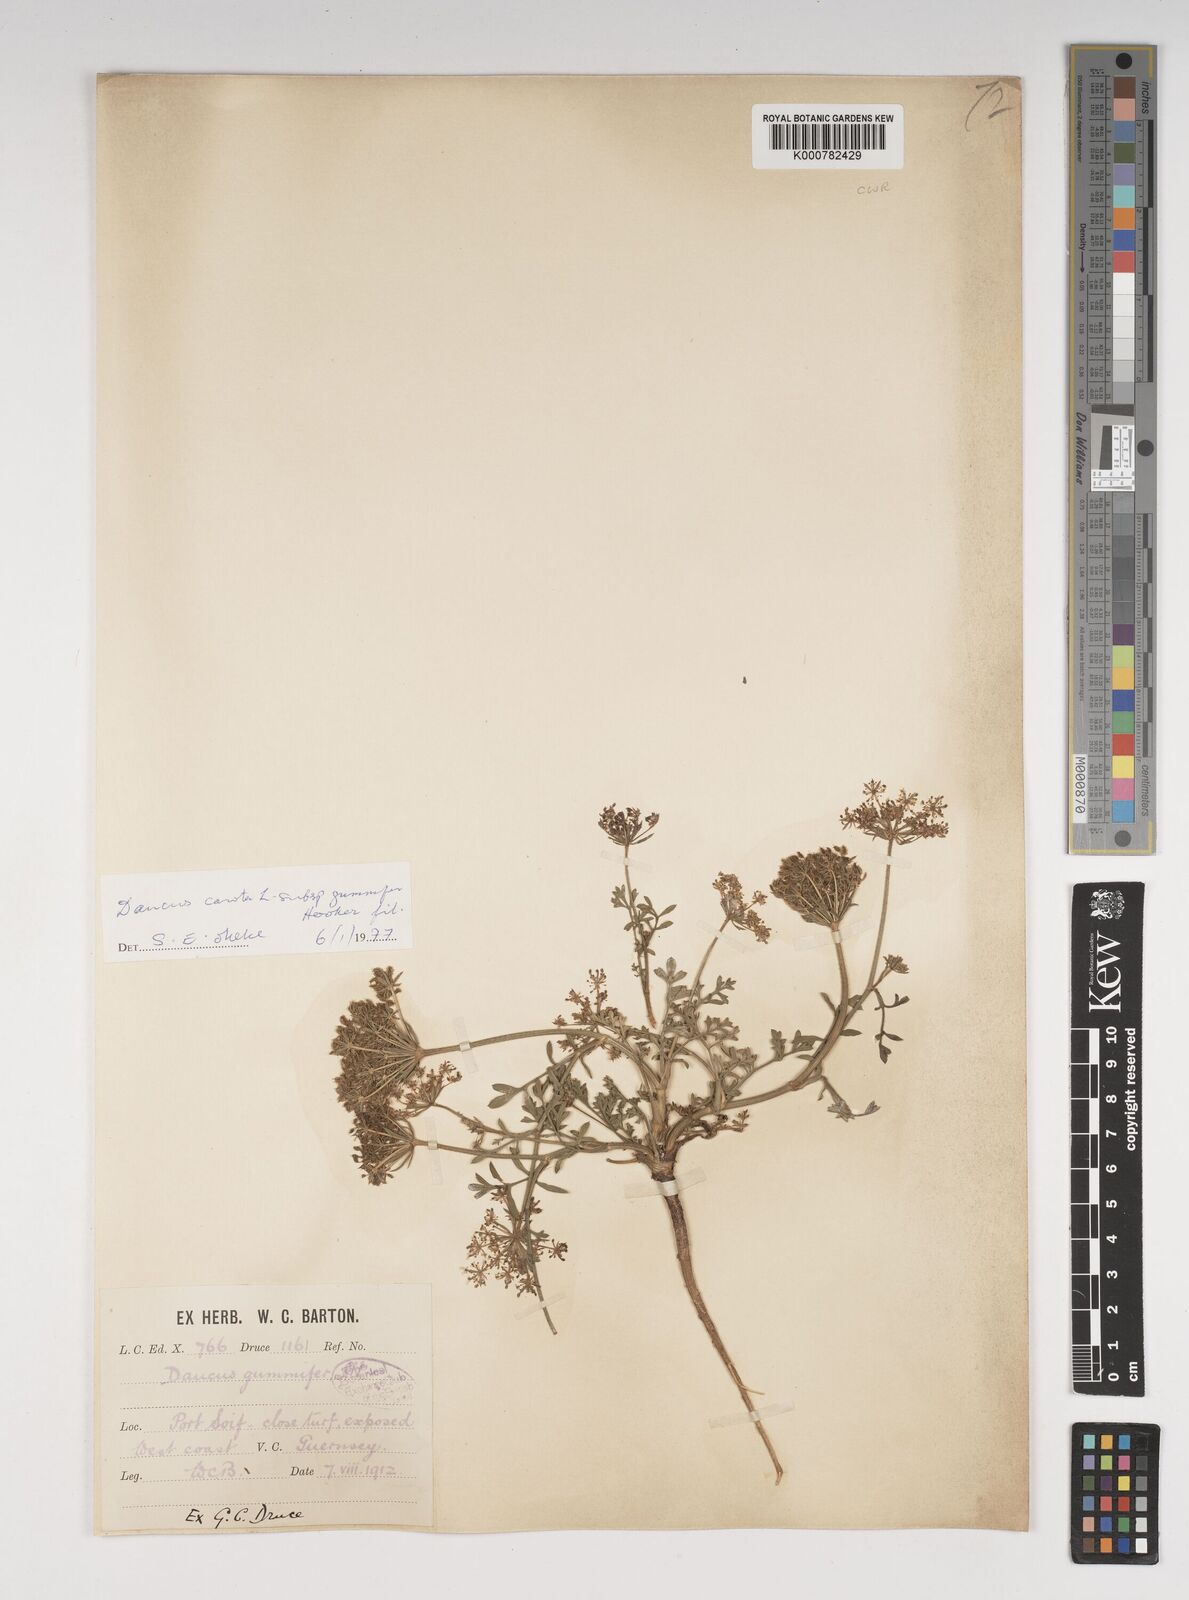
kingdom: Plantae
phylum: Tracheophyta
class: Magnoliopsida
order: Apiales
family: Apiaceae
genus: Daucus
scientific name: Daucus carota
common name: Wild carrot
